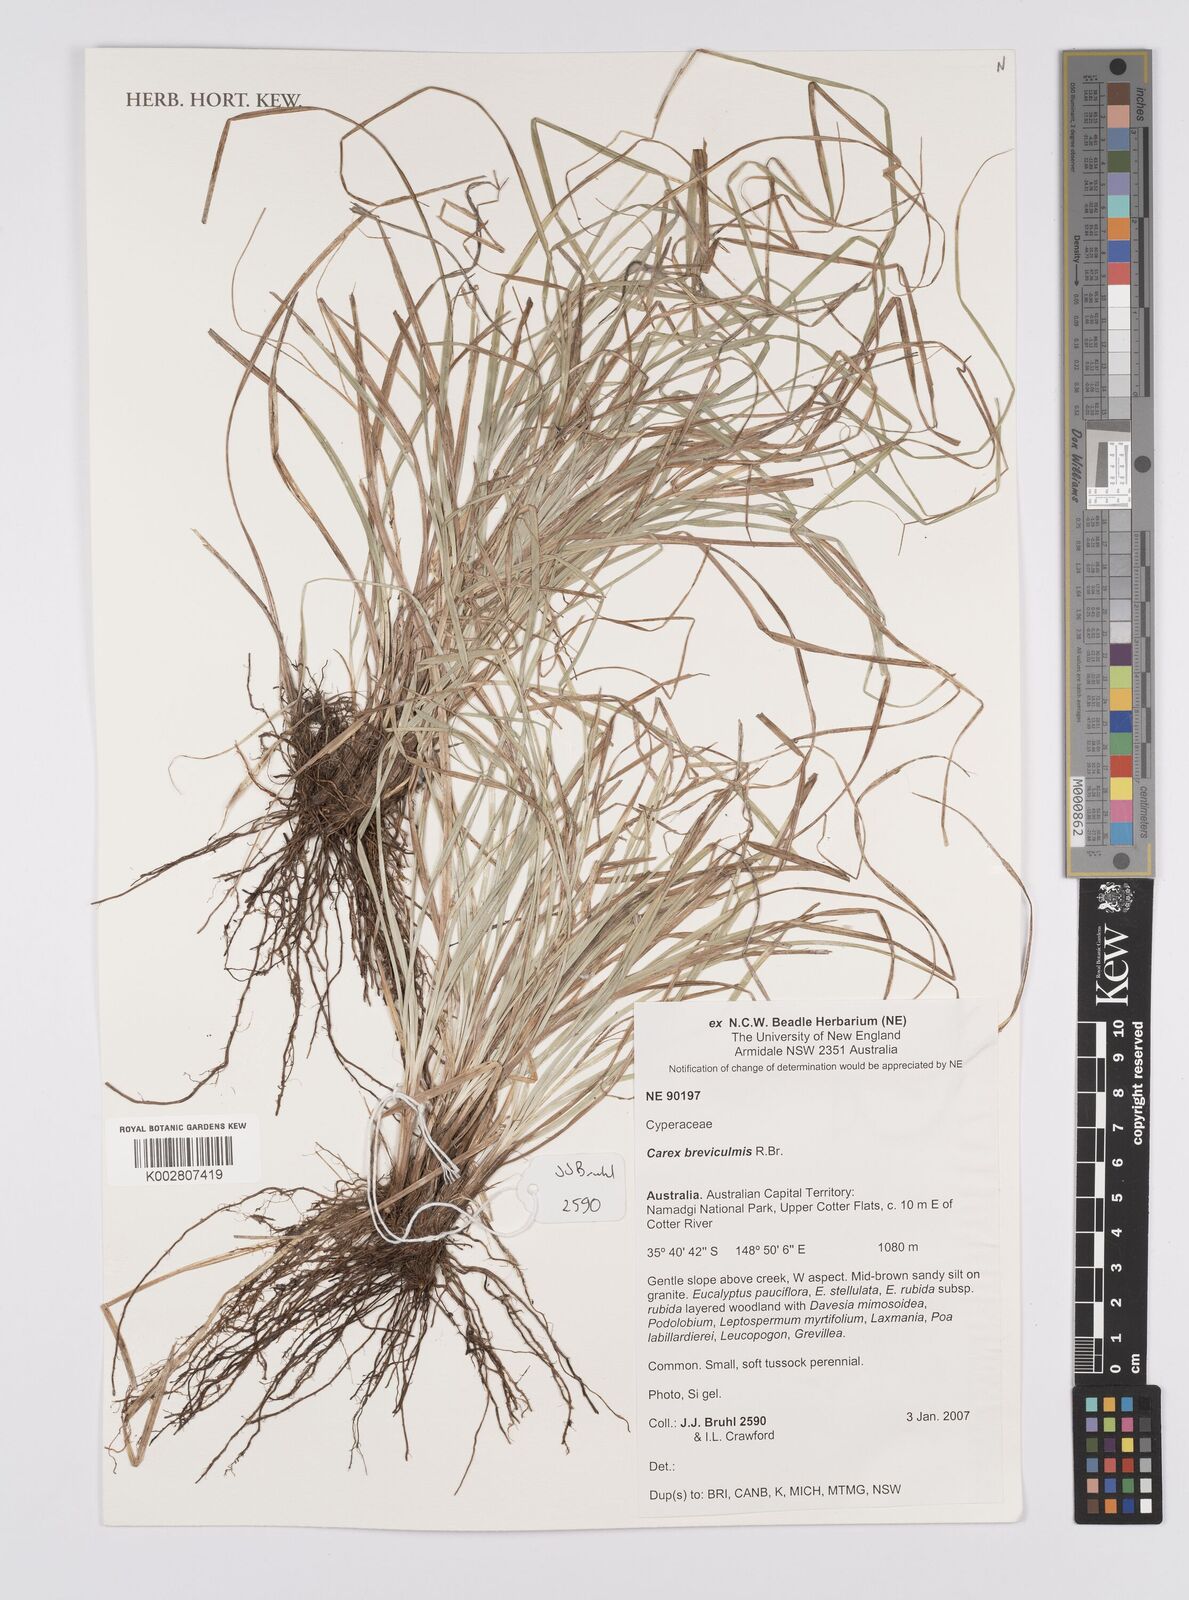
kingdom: Plantae
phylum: Tracheophyta
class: Liliopsida
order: Poales
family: Cyperaceae
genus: Carex
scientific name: Carex breviculmis
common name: Asian shortstem sedge
